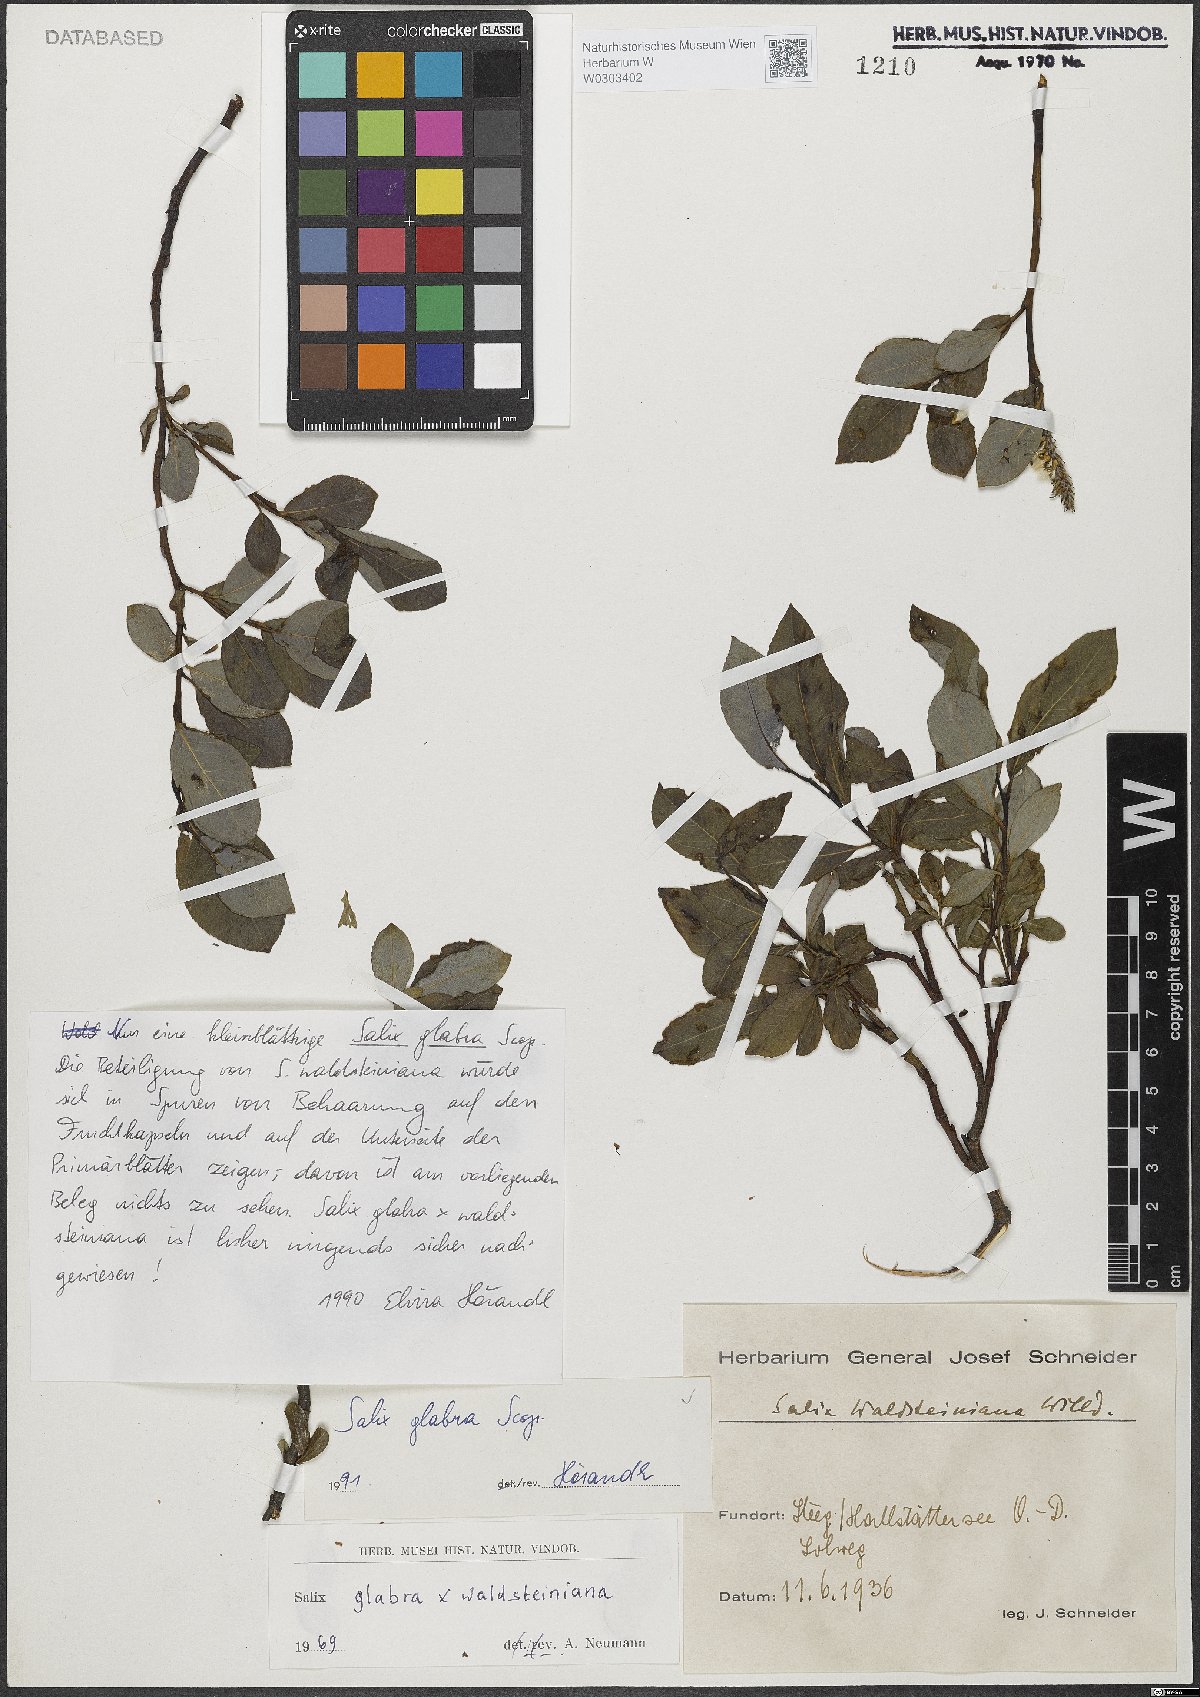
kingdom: Plantae
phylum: Tracheophyta
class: Magnoliopsida
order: Malpighiales
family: Salicaceae
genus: Salix
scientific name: Salix glabra
